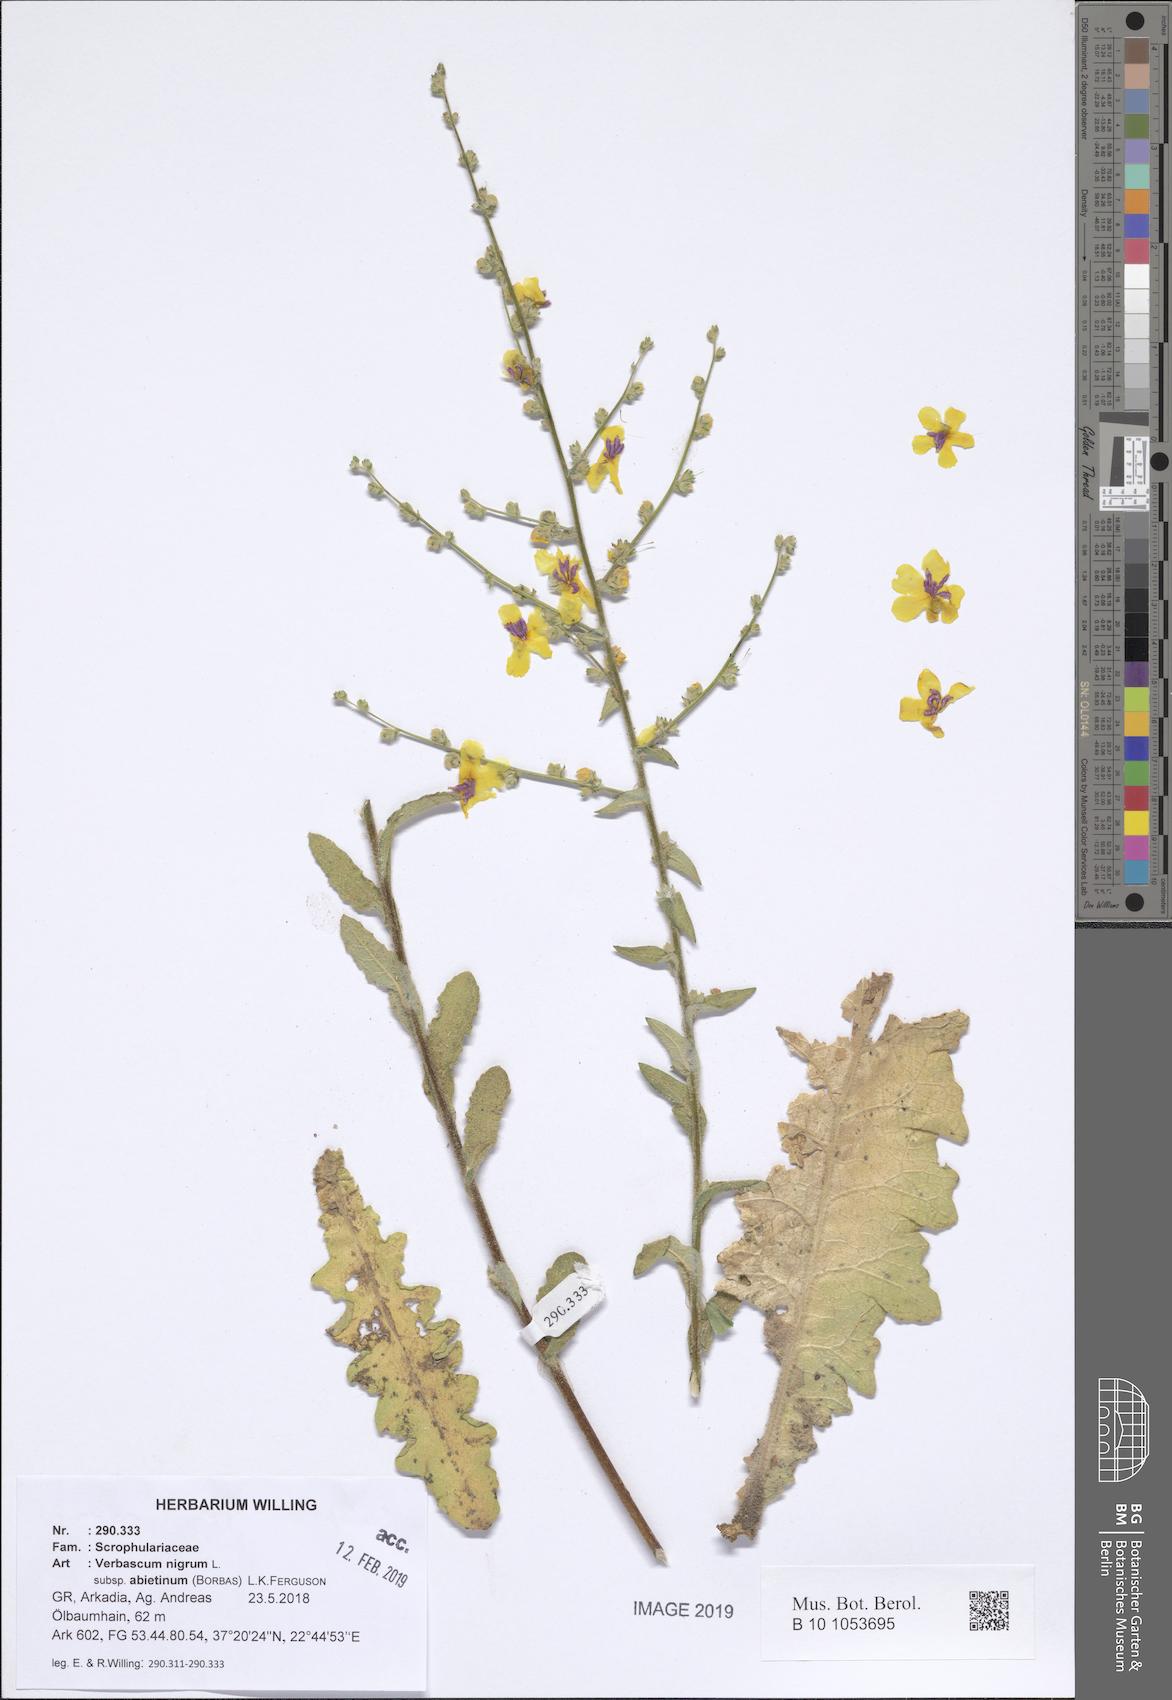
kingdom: Plantae
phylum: Tracheophyta
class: Magnoliopsida
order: Lamiales
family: Scrophulariaceae
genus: Verbascum
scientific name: Verbascum nigrum
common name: Dark mullein
